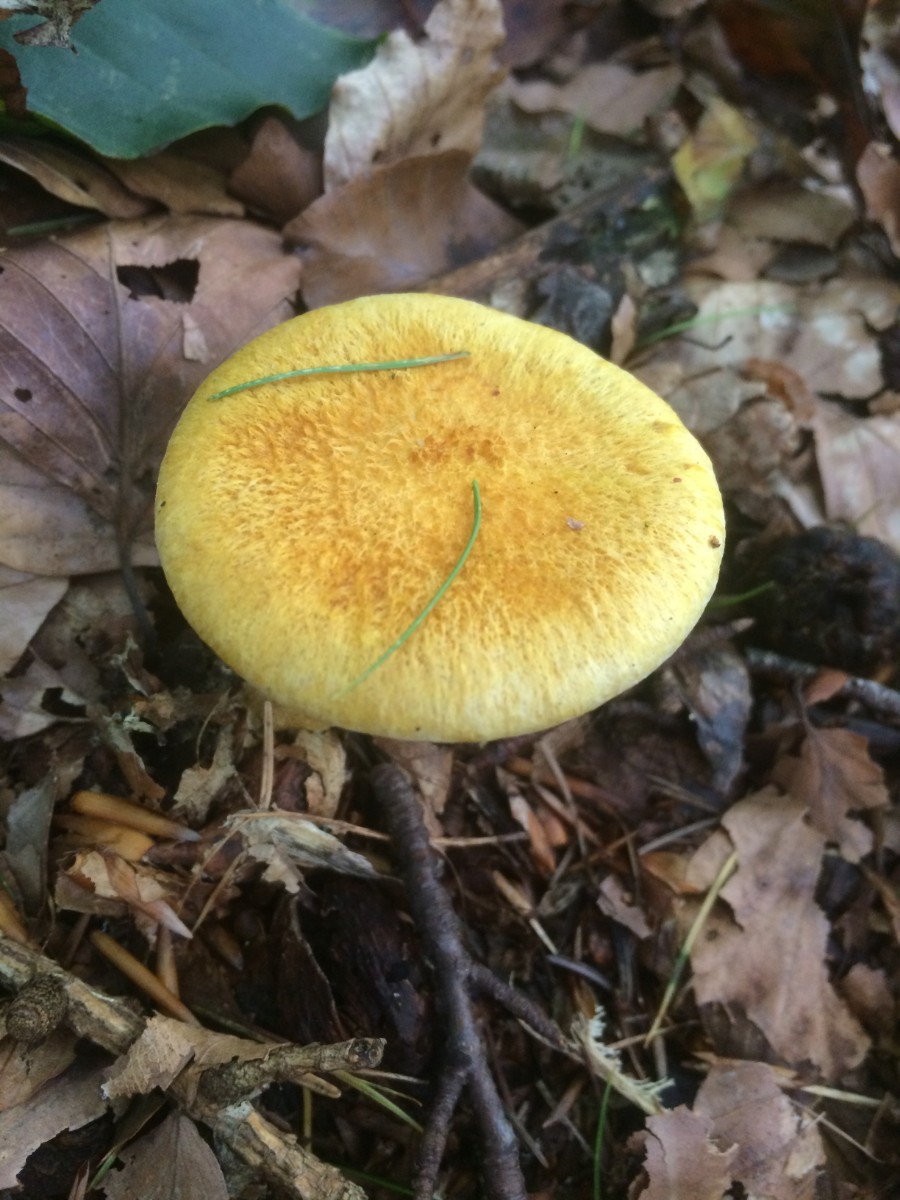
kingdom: Fungi
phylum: Basidiomycota
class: Agaricomycetes
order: Boletales
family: Suillaceae
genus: Suillus
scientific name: Suillus cavipes
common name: hulstokket slimrørhat
